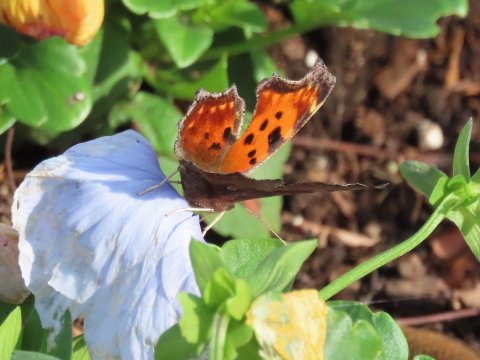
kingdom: Animalia
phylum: Arthropoda
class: Insecta
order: Lepidoptera
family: Nymphalidae
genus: Polygonia
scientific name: Polygonia comma
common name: Eastern Comma
